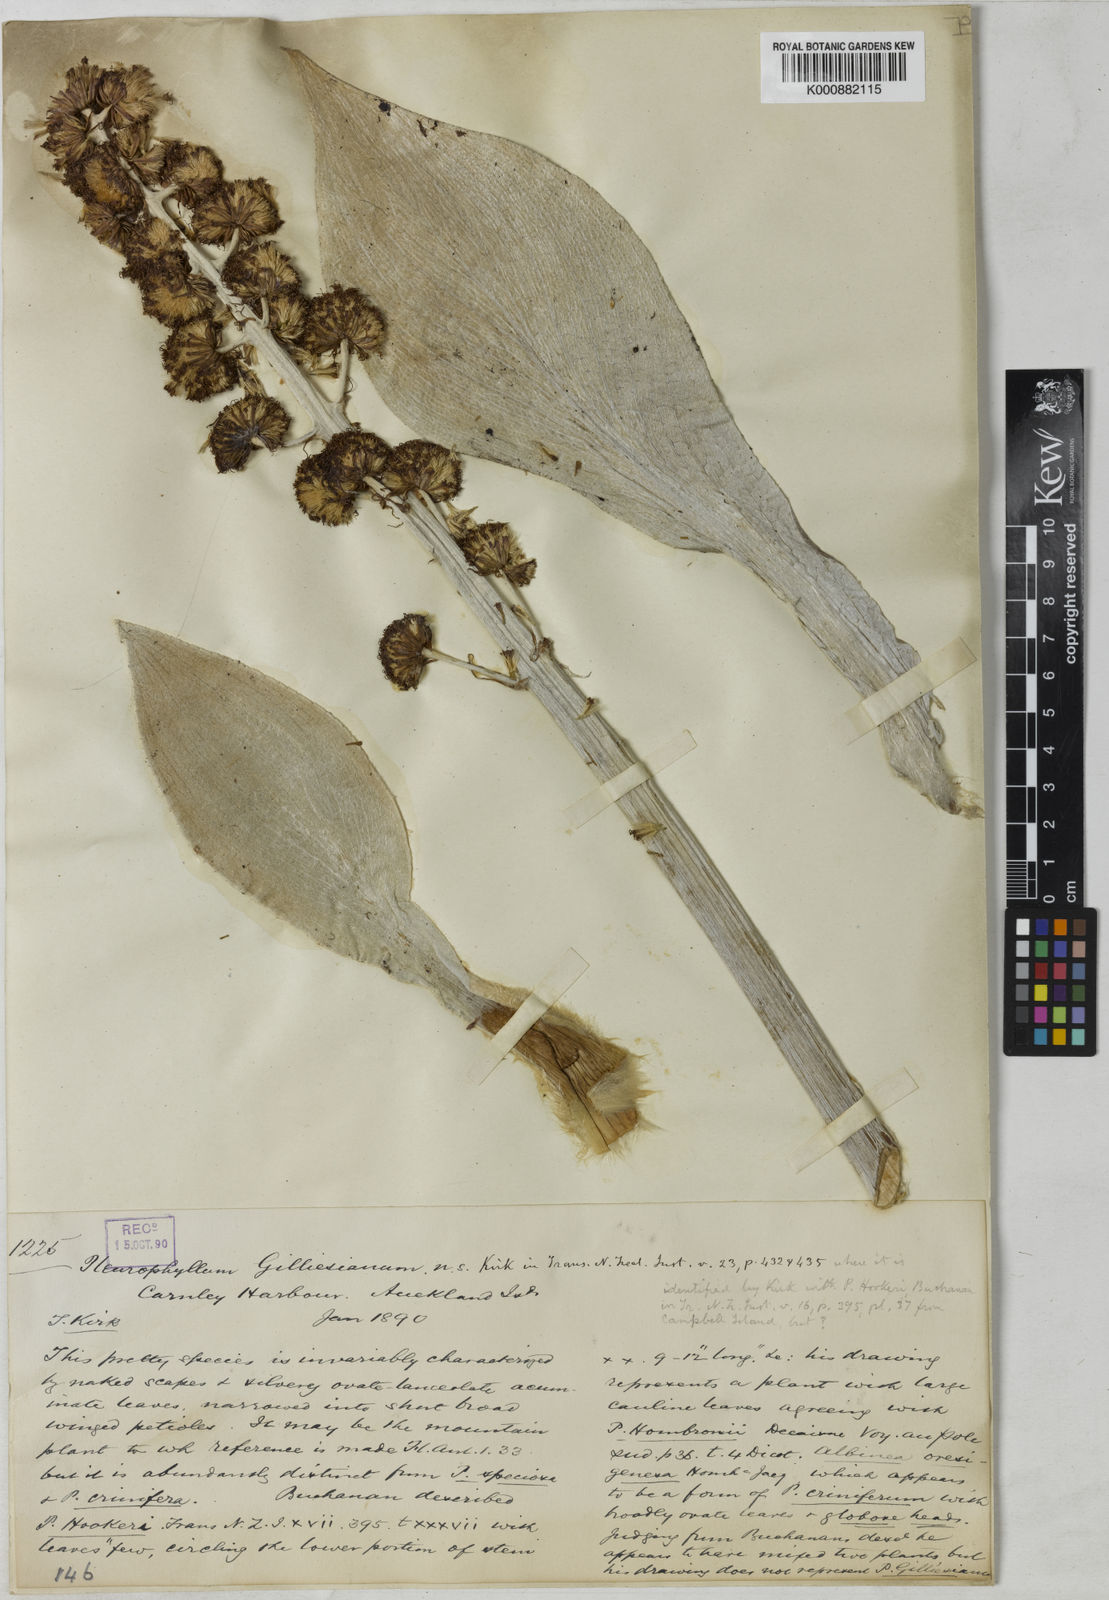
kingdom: Plantae
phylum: Tracheophyta
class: Magnoliopsida
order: Asterales
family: Asteraceae
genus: Pleurophyllum
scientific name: Pleurophyllum hookerianum
